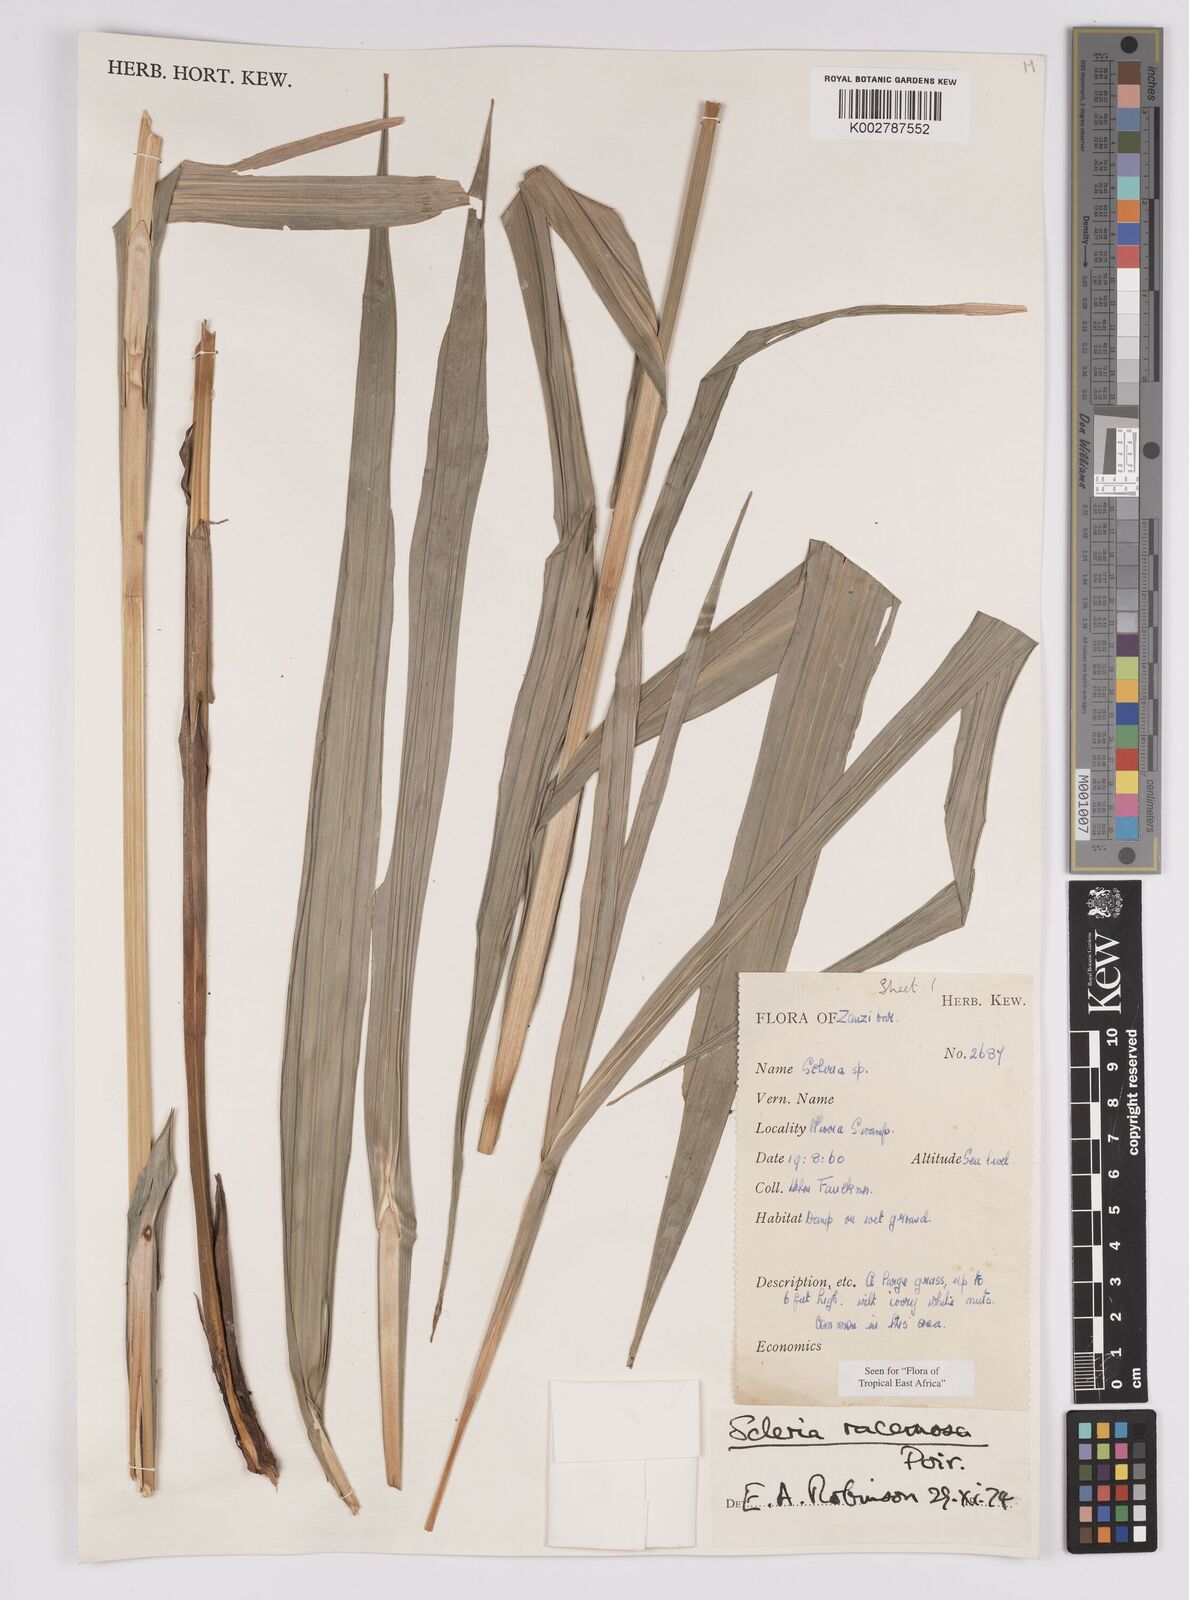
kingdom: Plantae
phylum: Tracheophyta
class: Liliopsida
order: Poales
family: Cyperaceae
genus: Scleria
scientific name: Scleria racemosa
